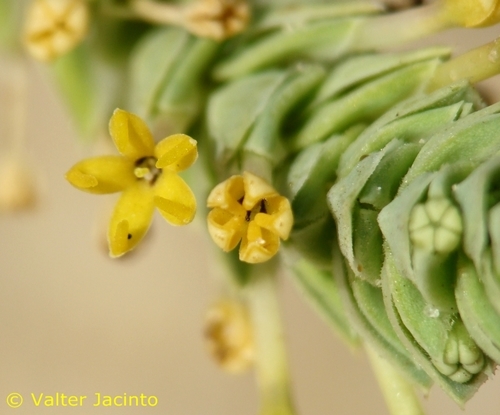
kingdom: Plantae
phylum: Tracheophyta
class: Magnoliopsida
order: Gentianales
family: Rubiaceae
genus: Crucianella
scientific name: Crucianella maritima
